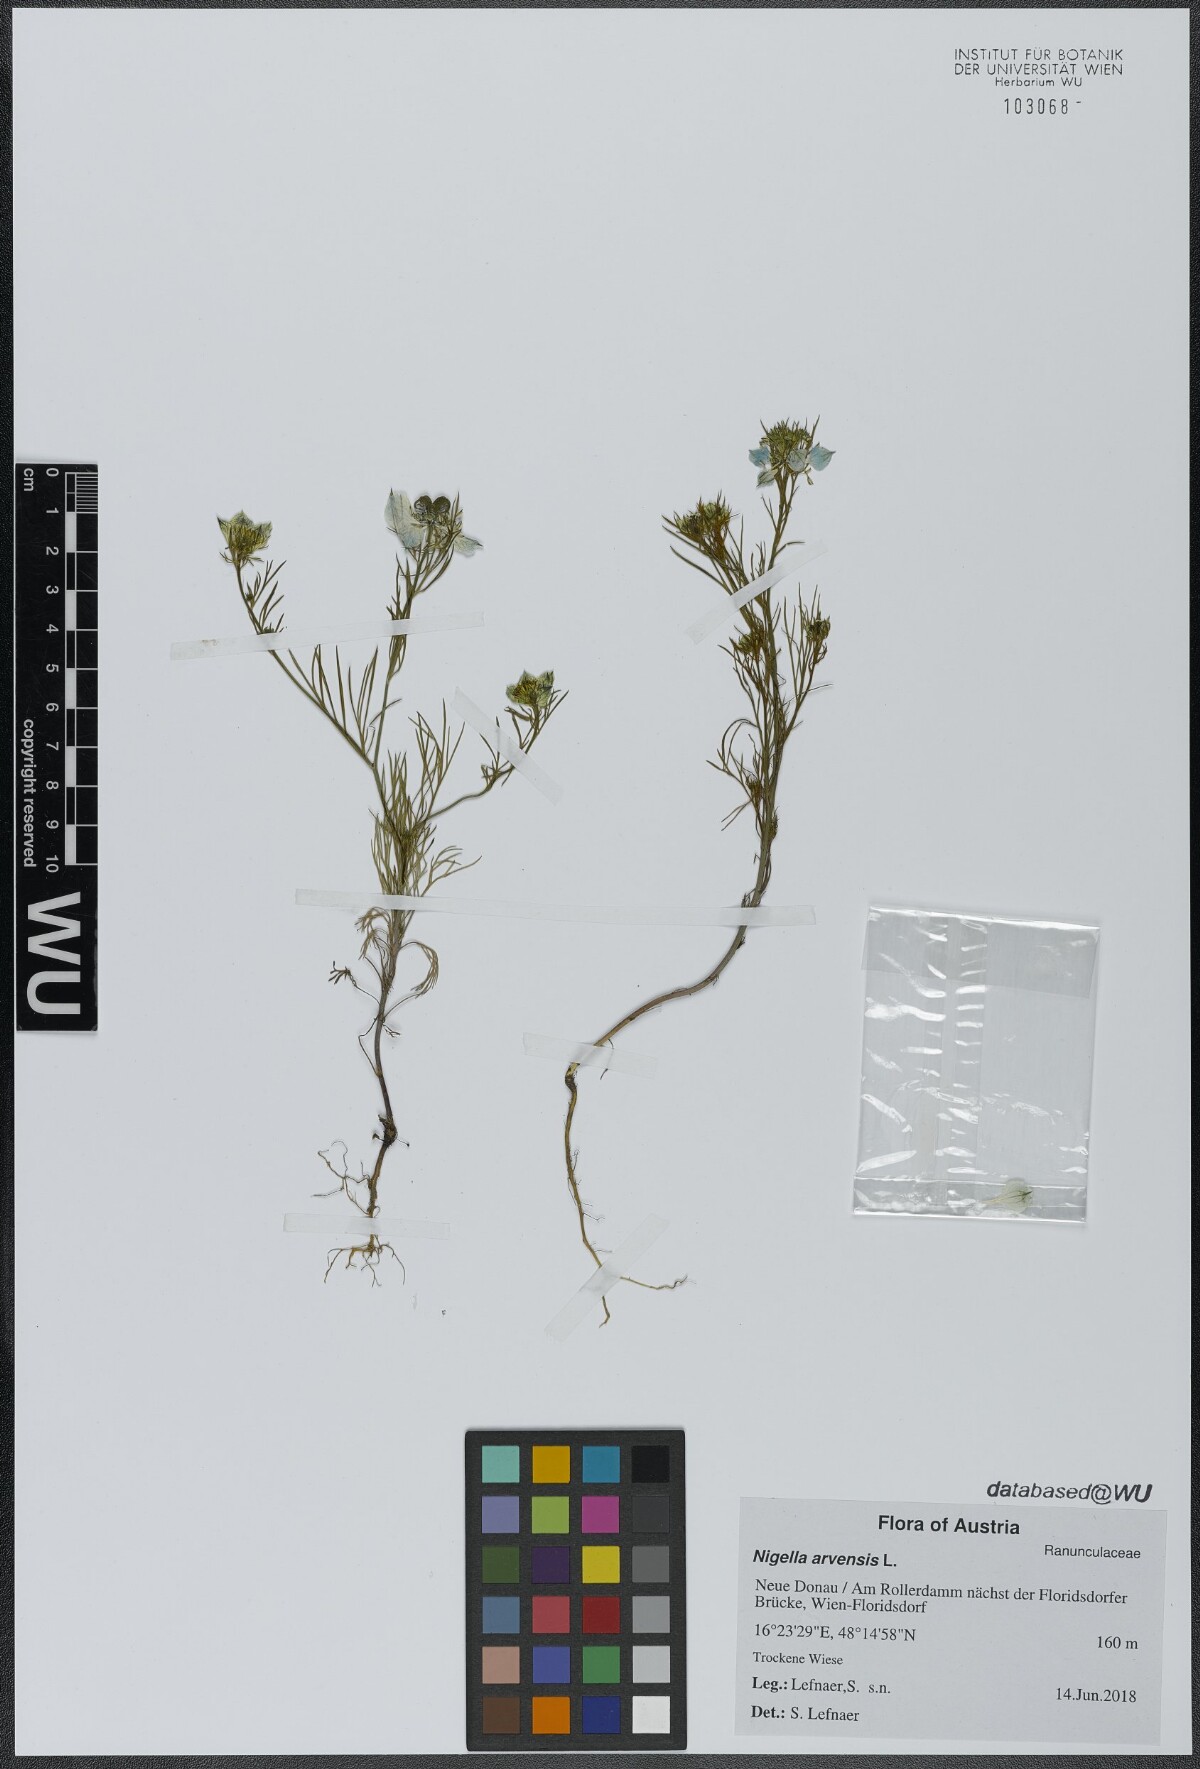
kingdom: Plantae
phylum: Tracheophyta
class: Magnoliopsida
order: Ranunculales
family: Ranunculaceae
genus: Nigella
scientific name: Nigella arvensis
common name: Wild fennel-flower
